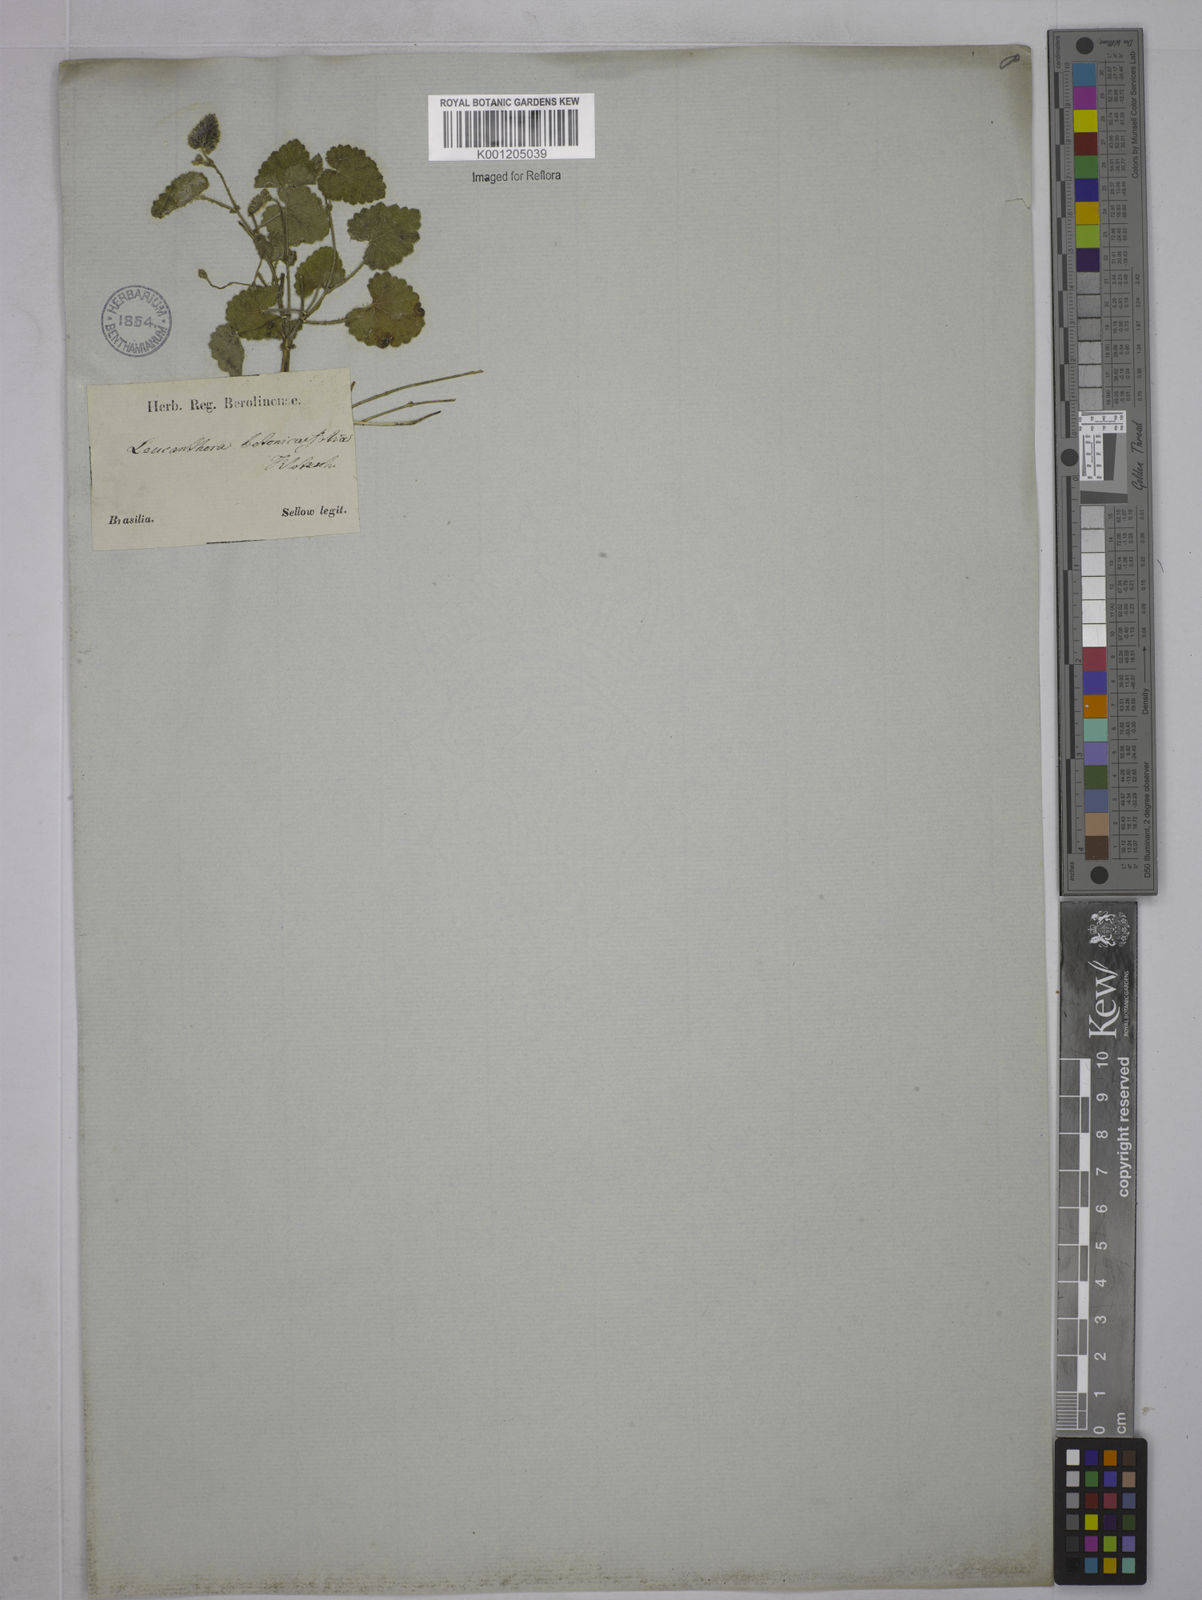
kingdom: Plantae
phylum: Tracheophyta
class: Magnoliopsida
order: Malpighiales
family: Euphorbiaceae
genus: Tragia
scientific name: Tragia betonicifolia
